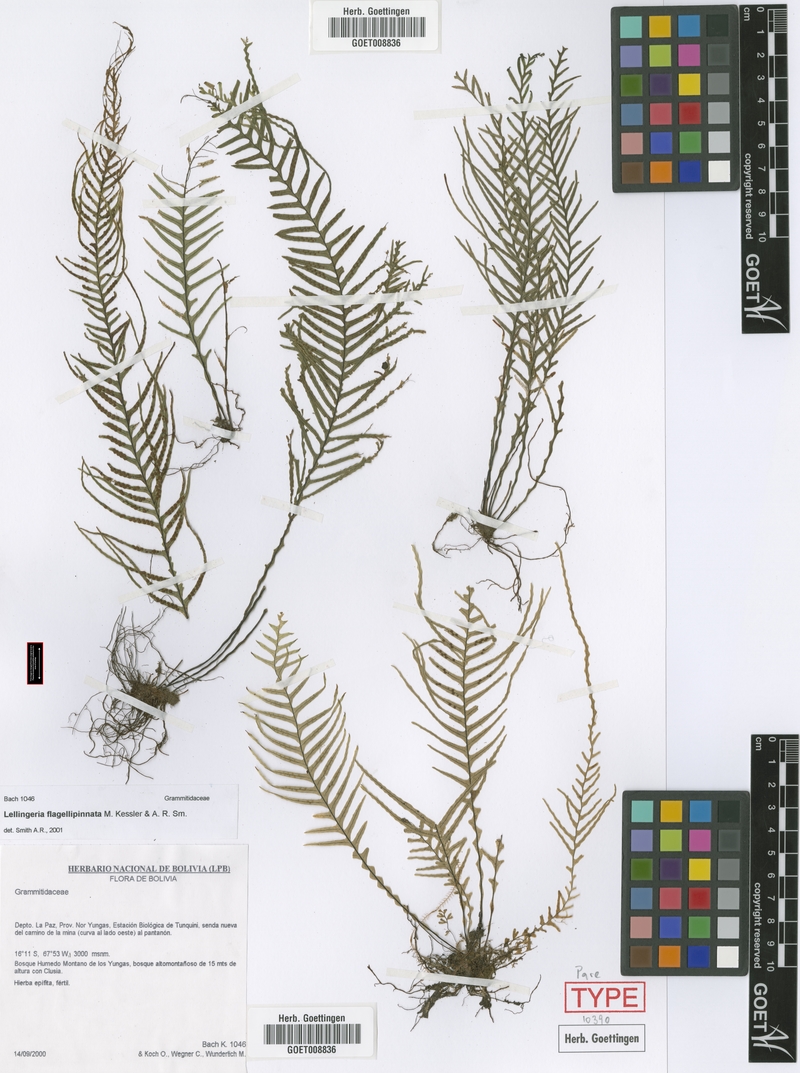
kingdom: Plantae
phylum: Tracheophyta
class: Polypodiopsida
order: Polypodiales
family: Polypodiaceae
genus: Lellingeria
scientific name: Lellingeria flagellipinnata
